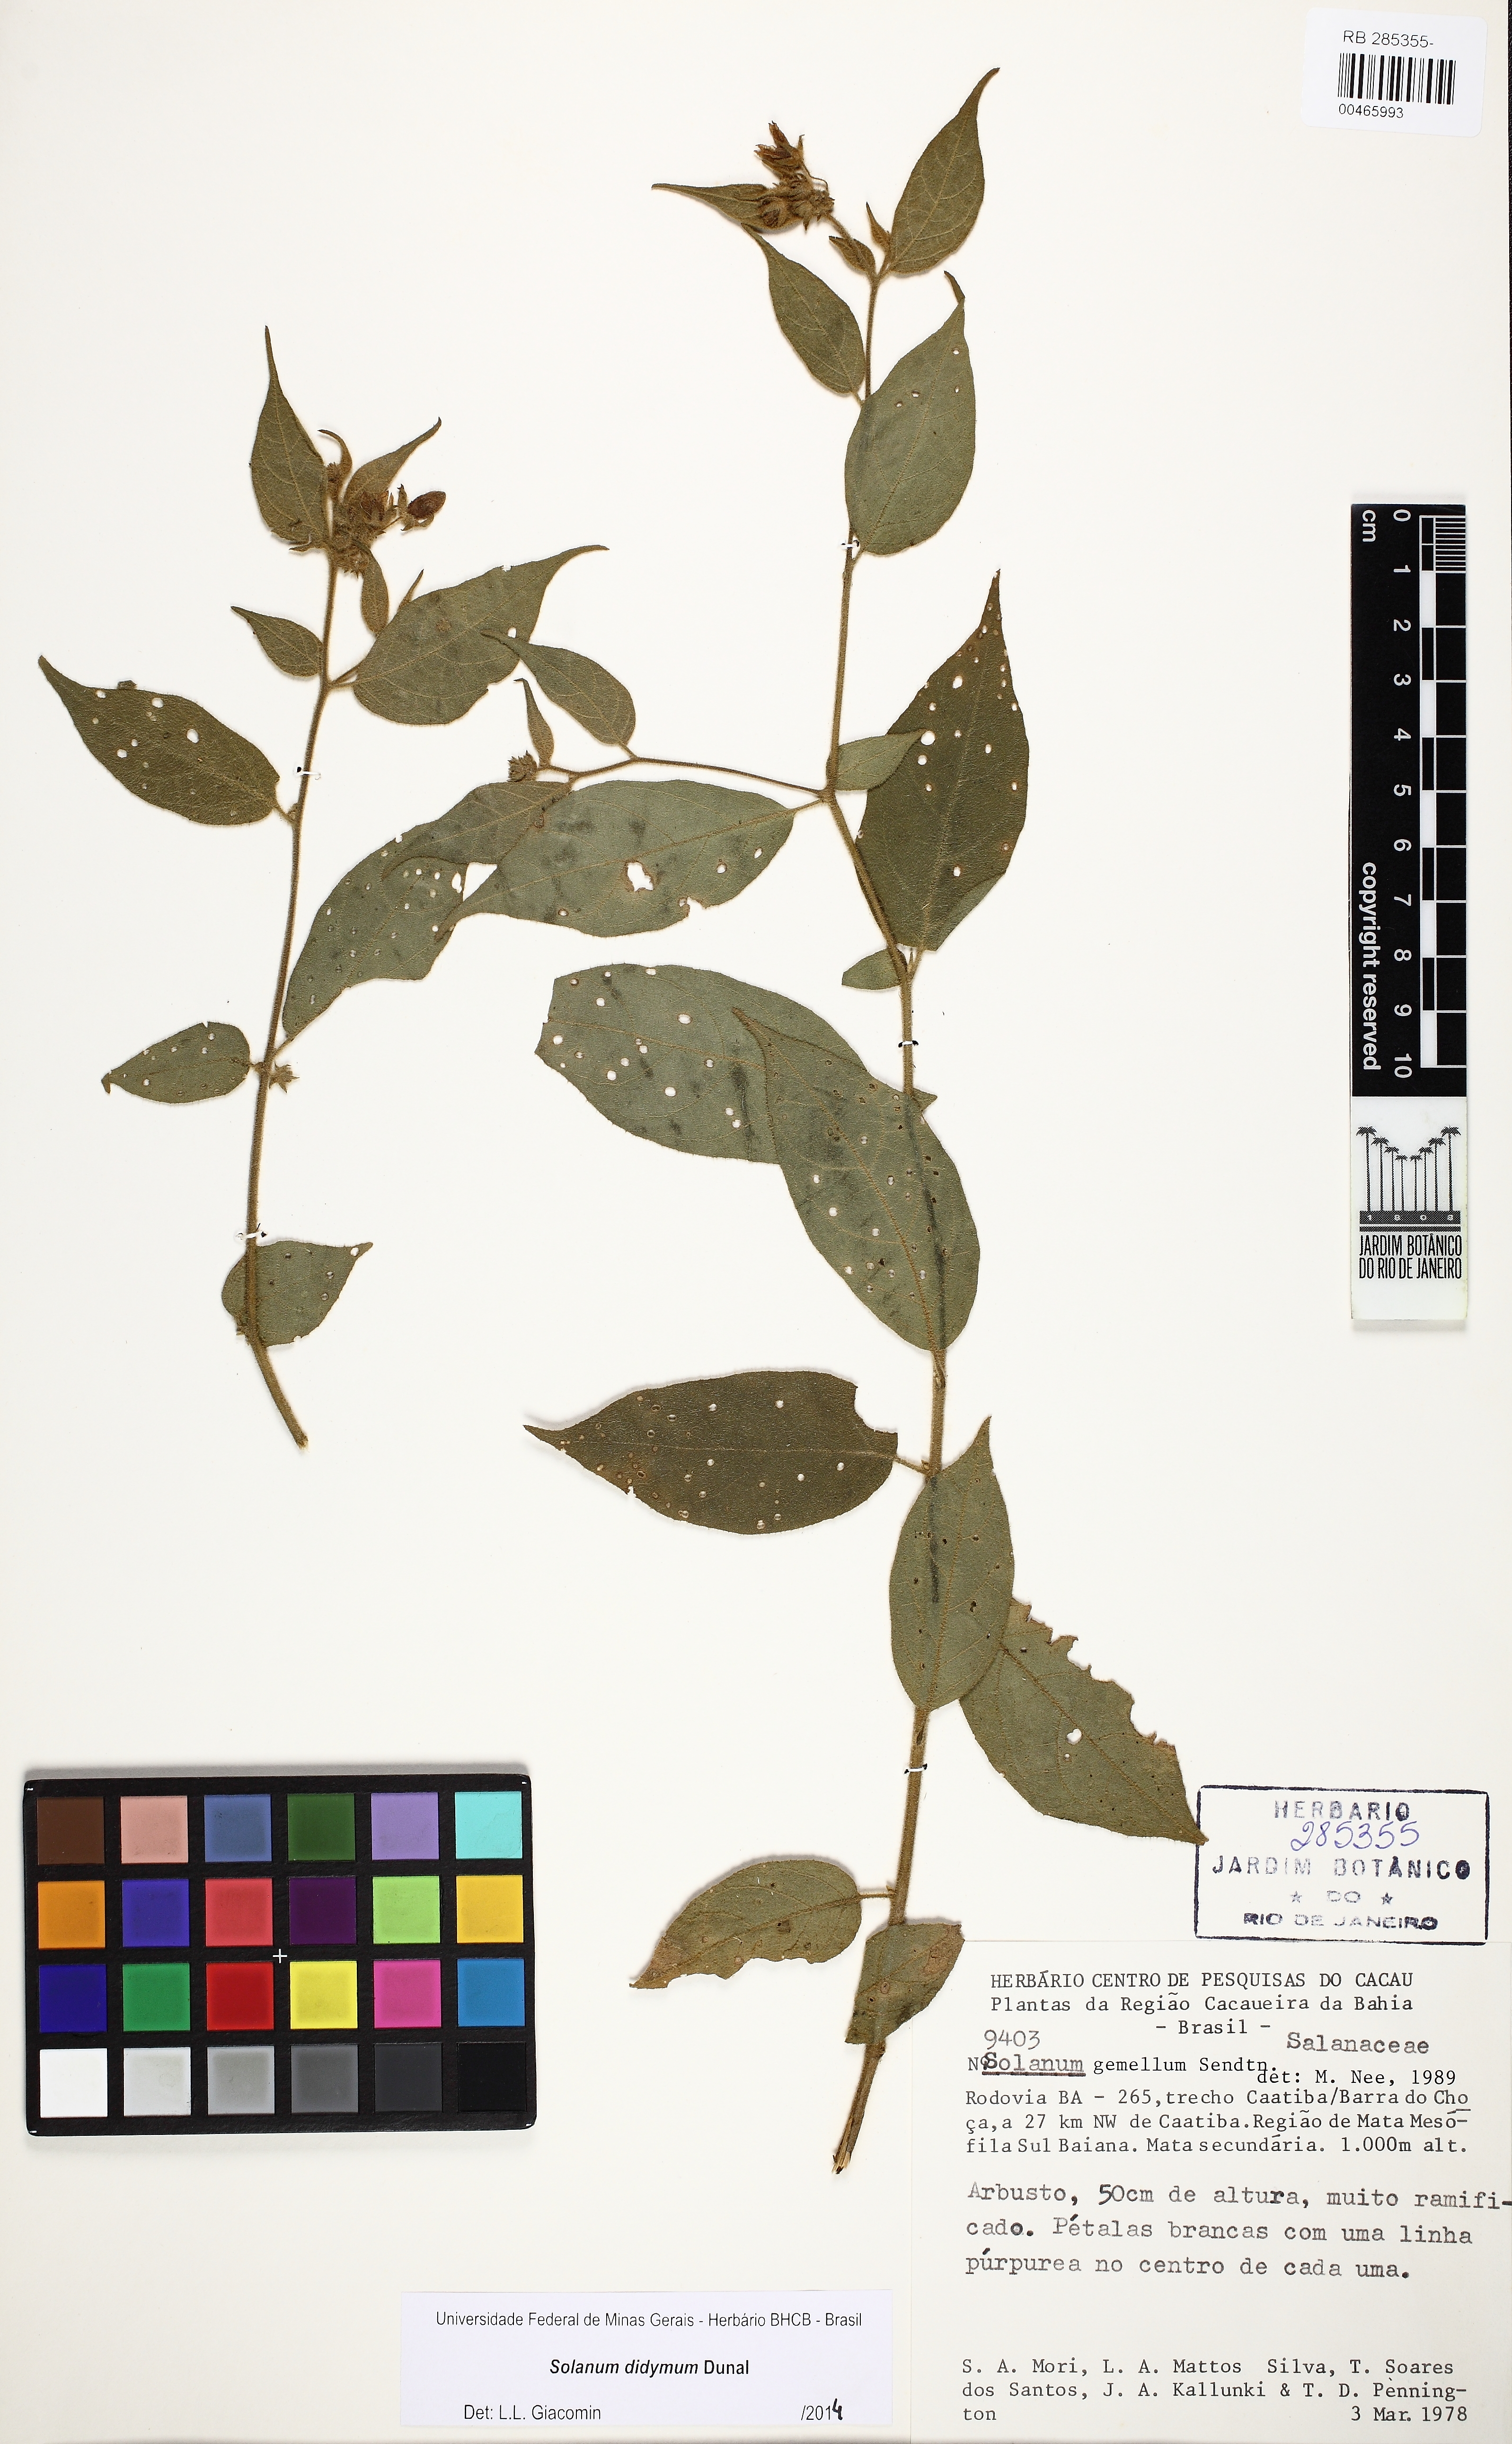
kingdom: Plantae
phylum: Tracheophyta
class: Magnoliopsida
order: Solanales
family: Solanaceae
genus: Solanum
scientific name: Solanum didymum
